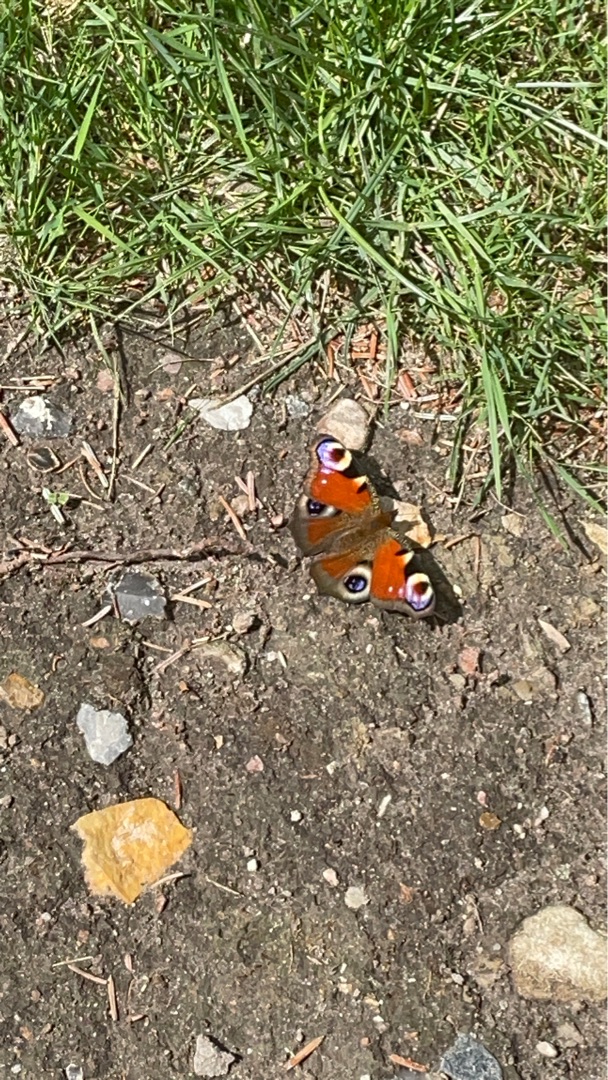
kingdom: Animalia
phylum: Arthropoda
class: Insecta
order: Lepidoptera
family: Nymphalidae
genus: Aglais
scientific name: Aglais io
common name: Dagpåfugleøje
